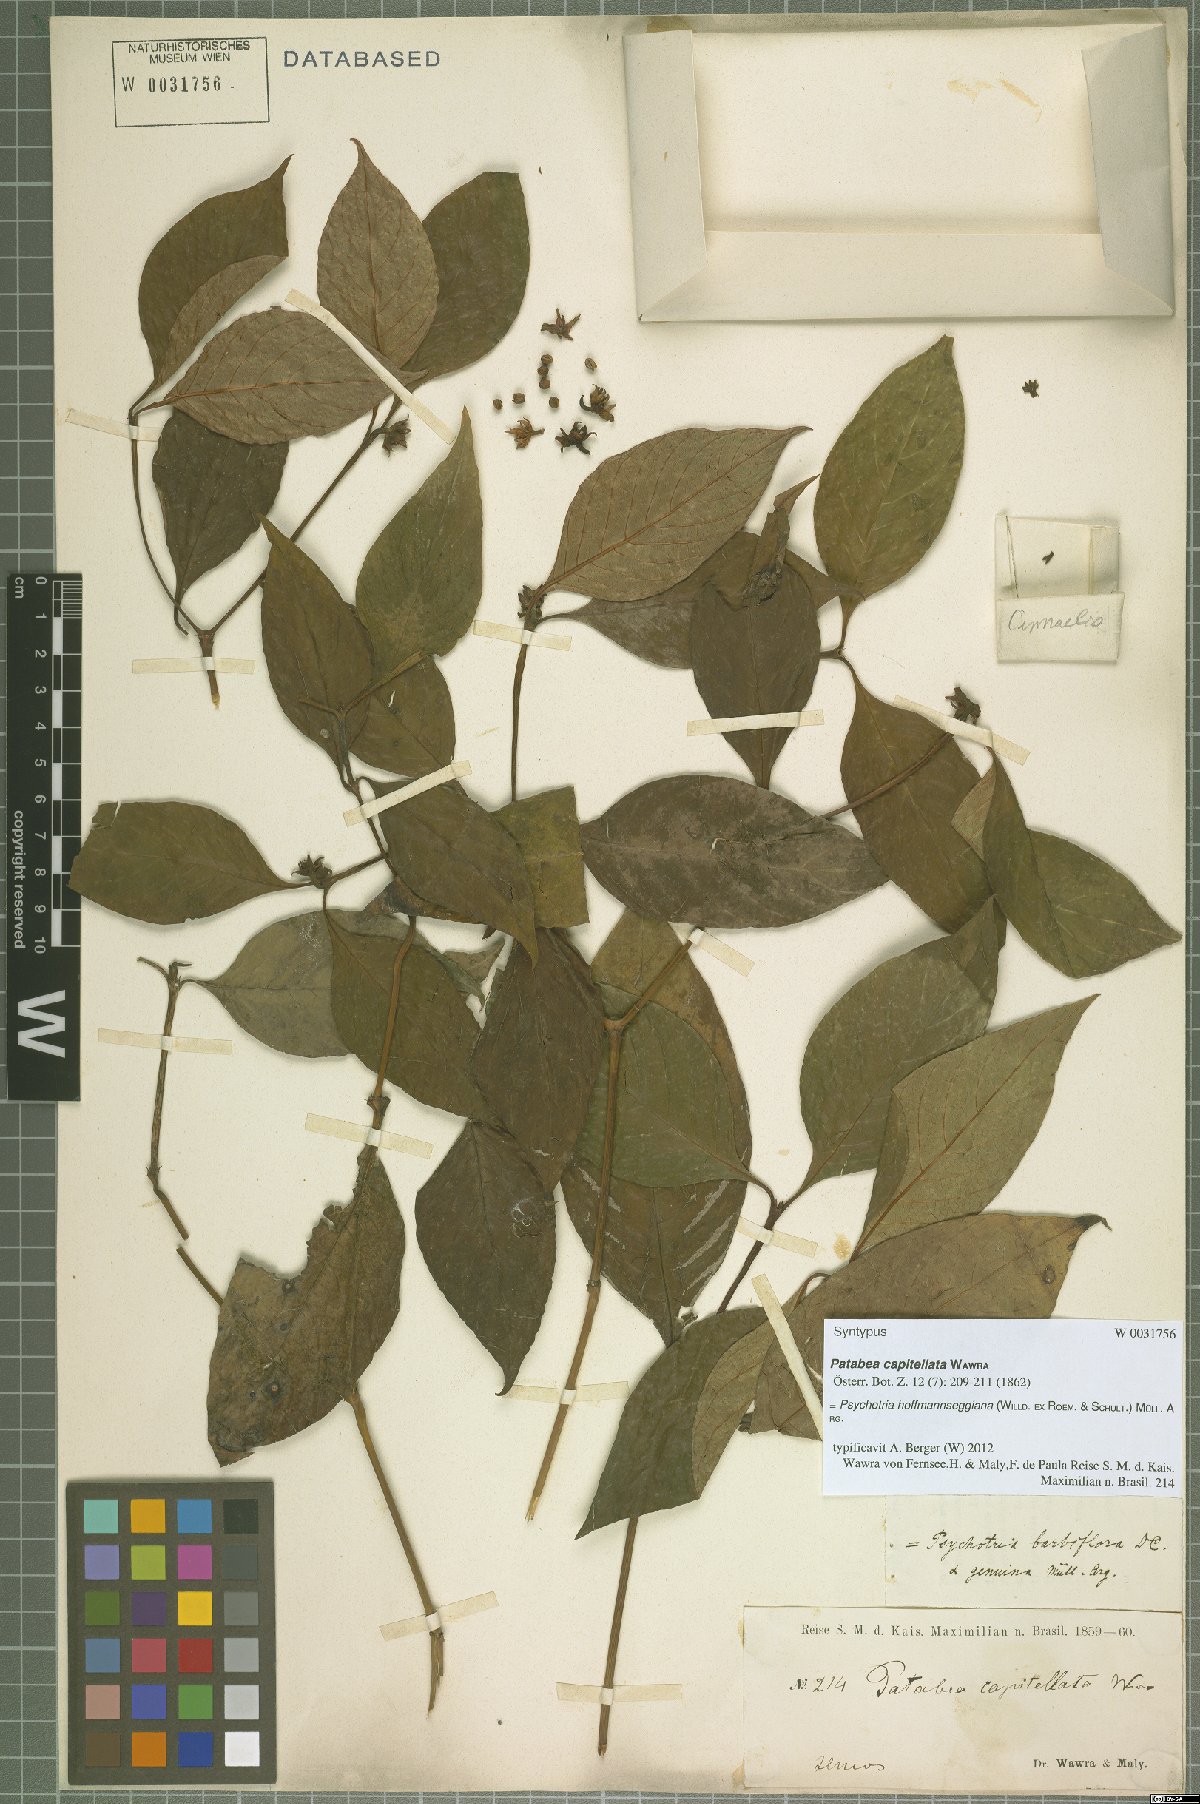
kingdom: Plantae
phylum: Tracheophyta
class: Magnoliopsida
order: Gentianales
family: Rubiaceae
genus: Palicourea
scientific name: Palicourea hoffmannseggiana
